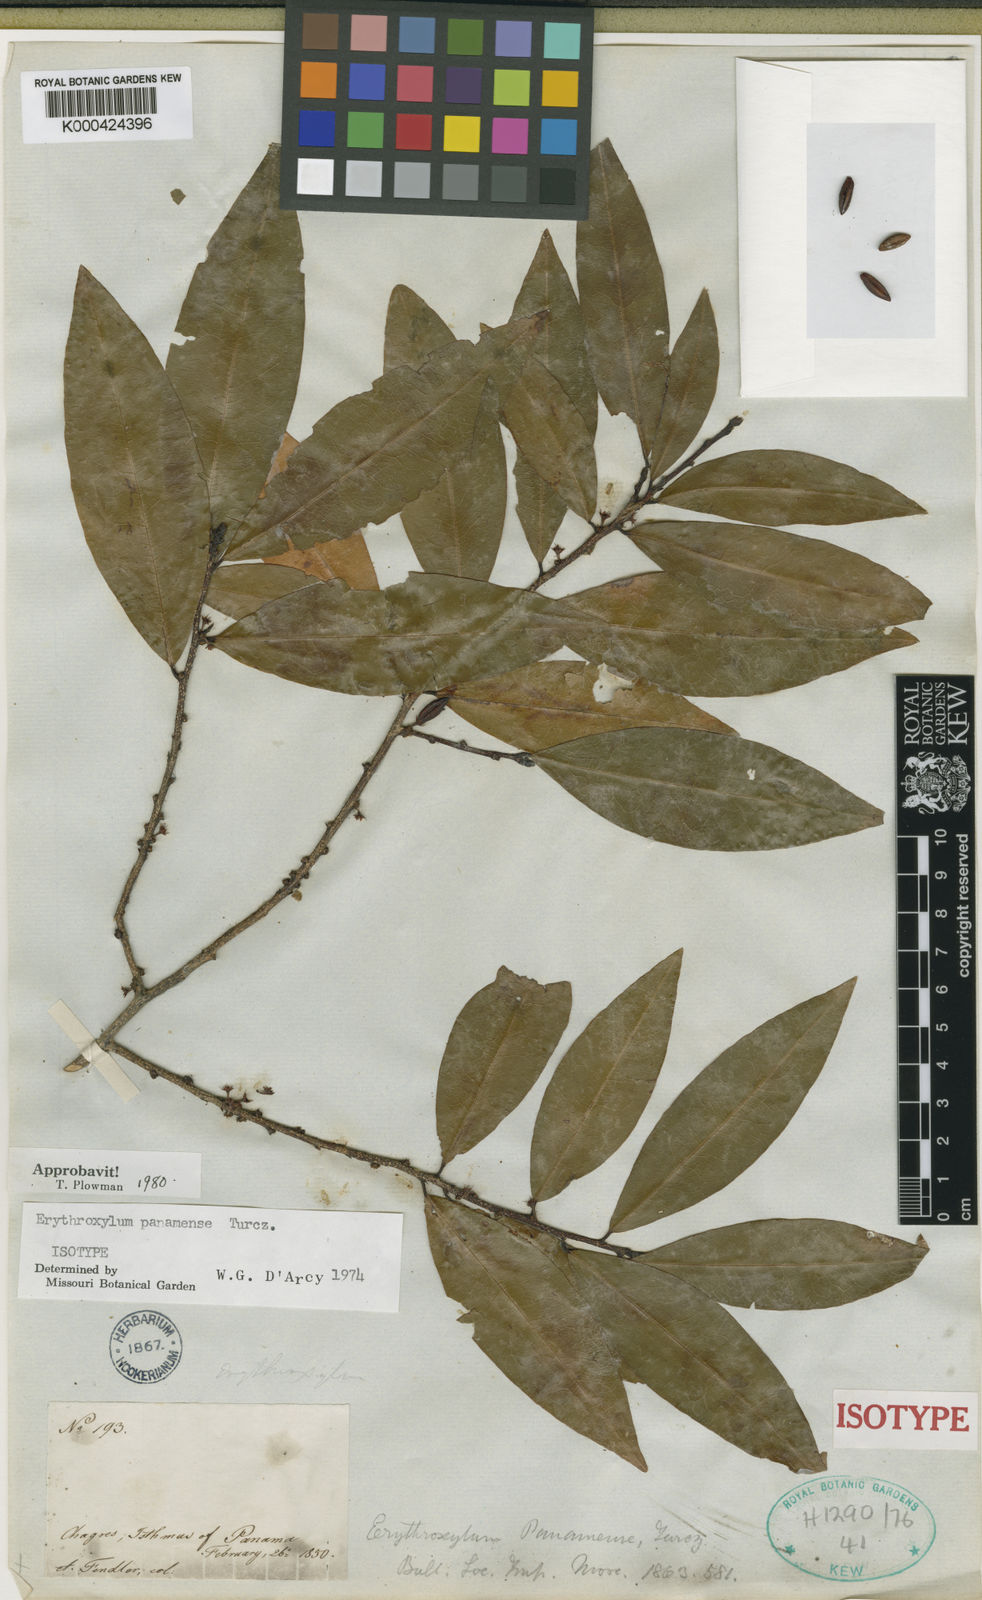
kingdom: Plantae
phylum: Tracheophyta
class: Magnoliopsida
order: Malpighiales
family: Erythroxylaceae
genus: Erythroxylum
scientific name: Erythroxylum panamense
